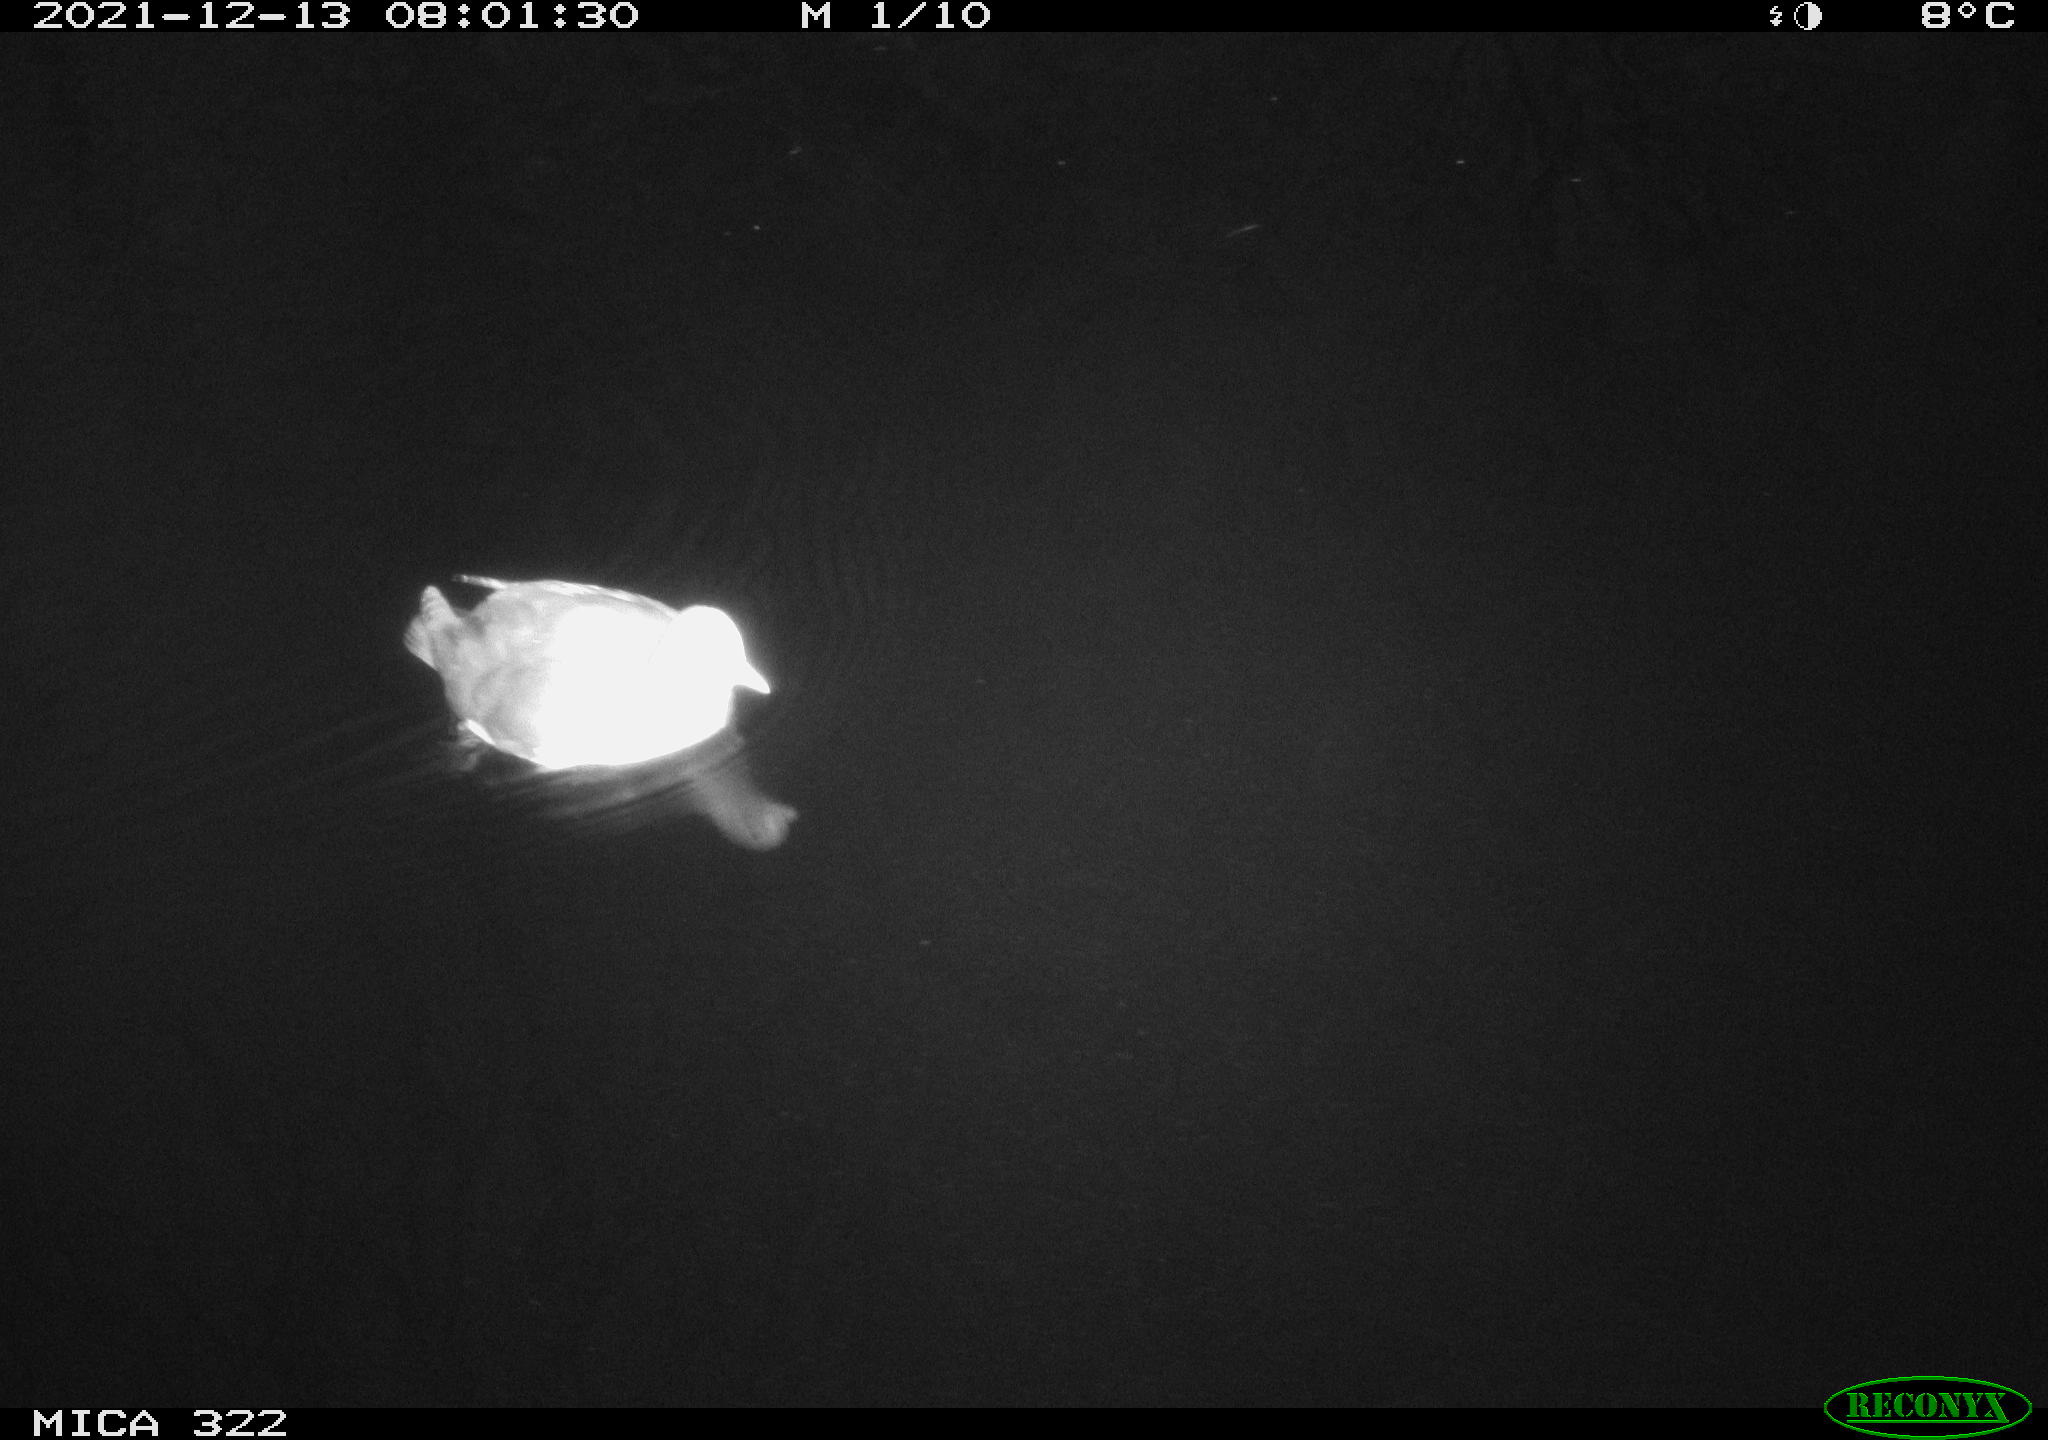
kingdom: Animalia
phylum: Chordata
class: Aves
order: Anseriformes
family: Anatidae
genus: Anas
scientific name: Anas
